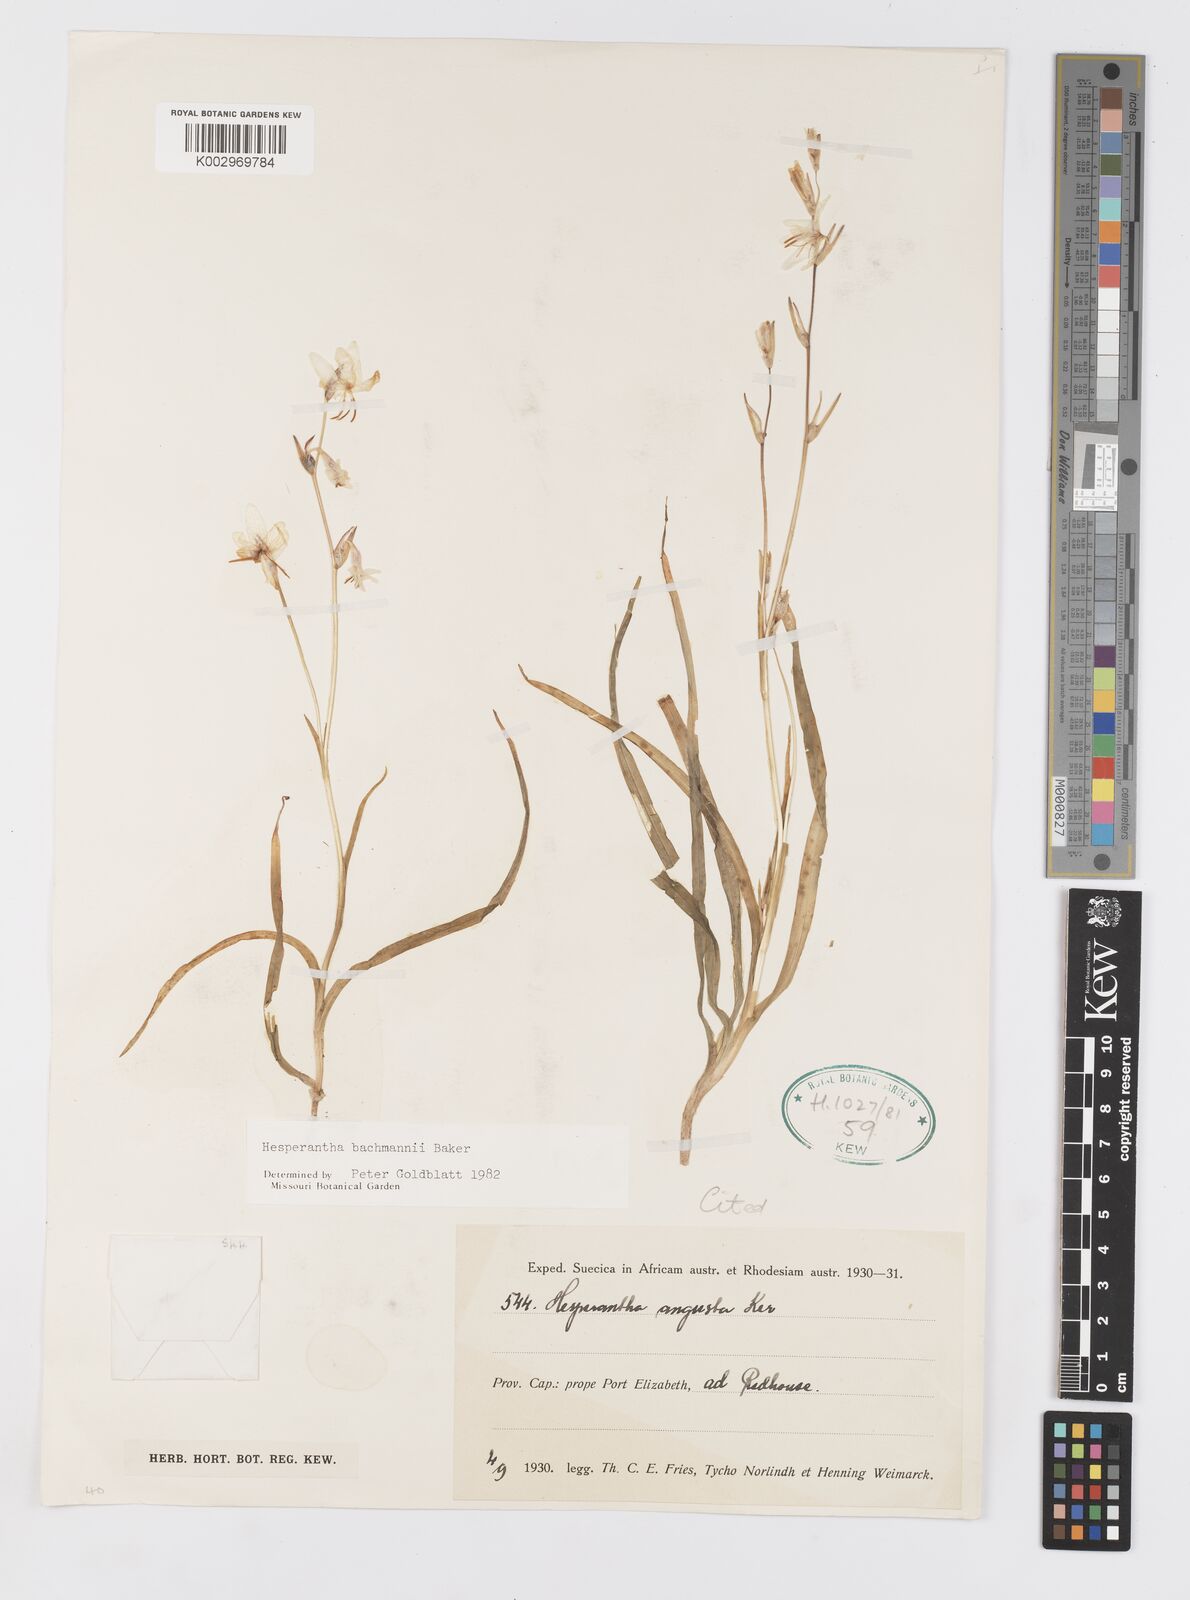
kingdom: Plantae
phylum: Tracheophyta
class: Liliopsida
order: Asparagales
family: Iridaceae
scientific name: Iridaceae
